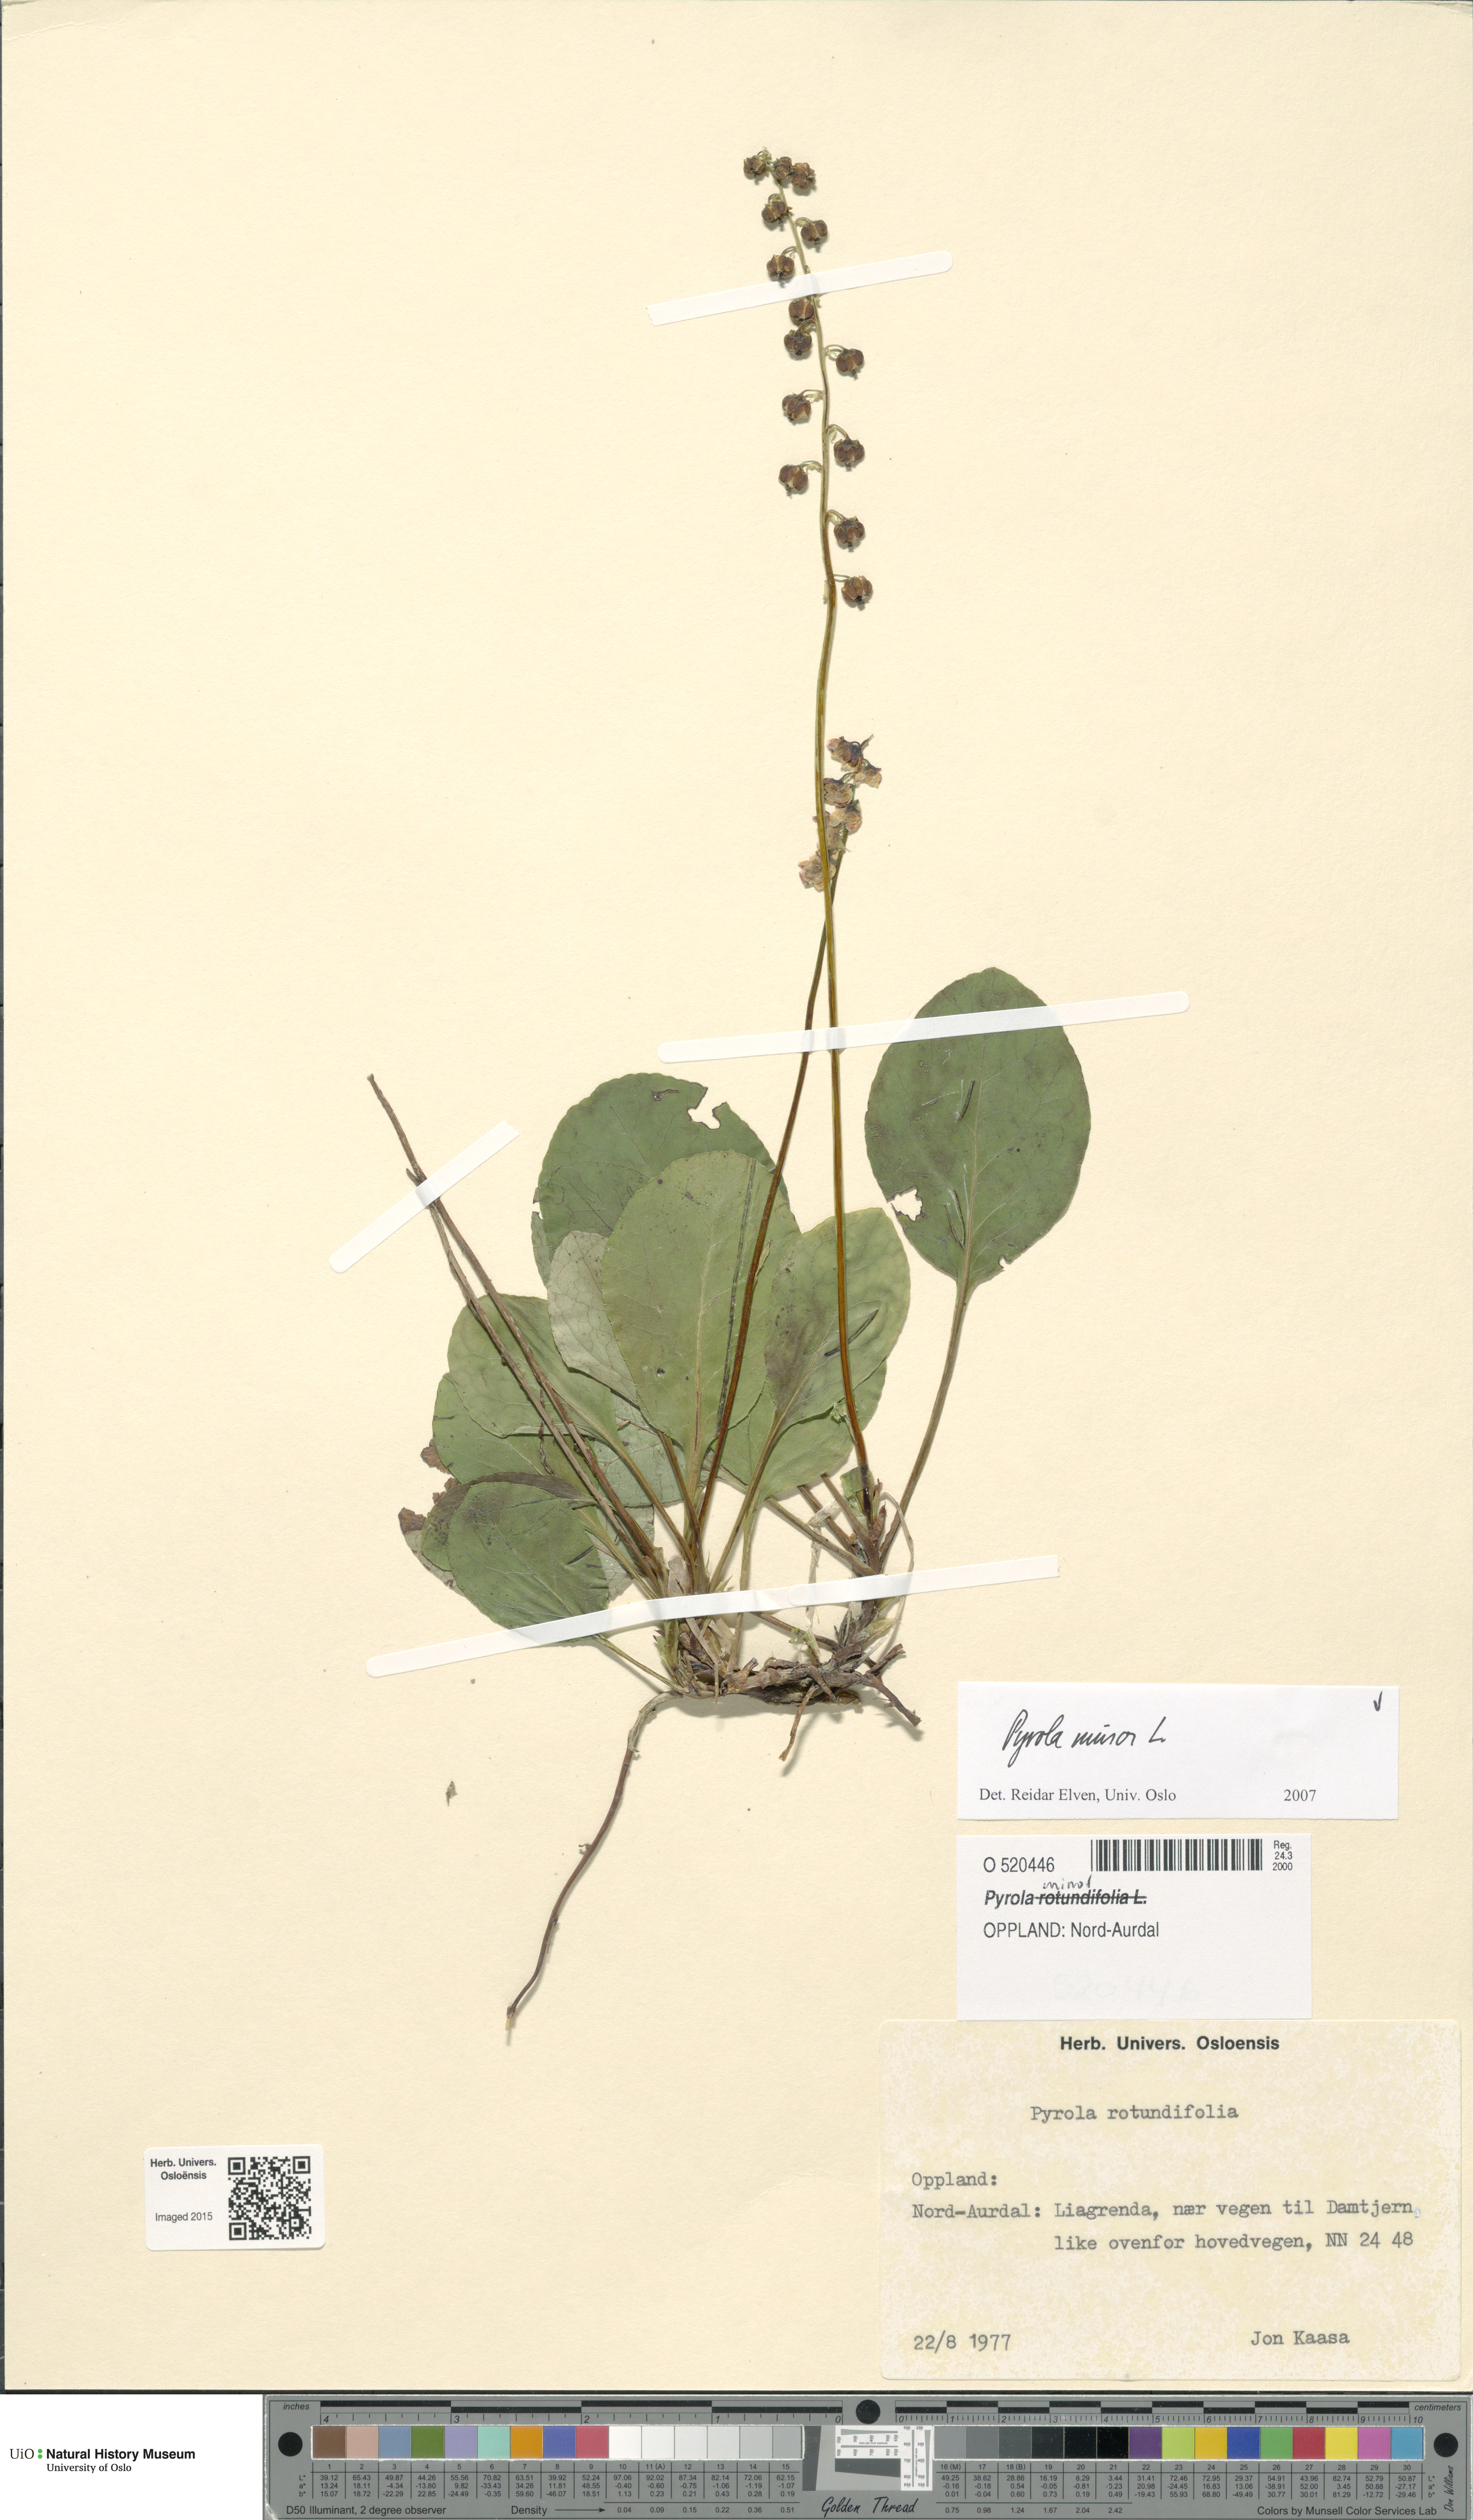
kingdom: Plantae
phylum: Tracheophyta
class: Magnoliopsida
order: Ericales
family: Ericaceae
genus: Pyrola
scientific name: Pyrola minor
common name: Common wintergreen
